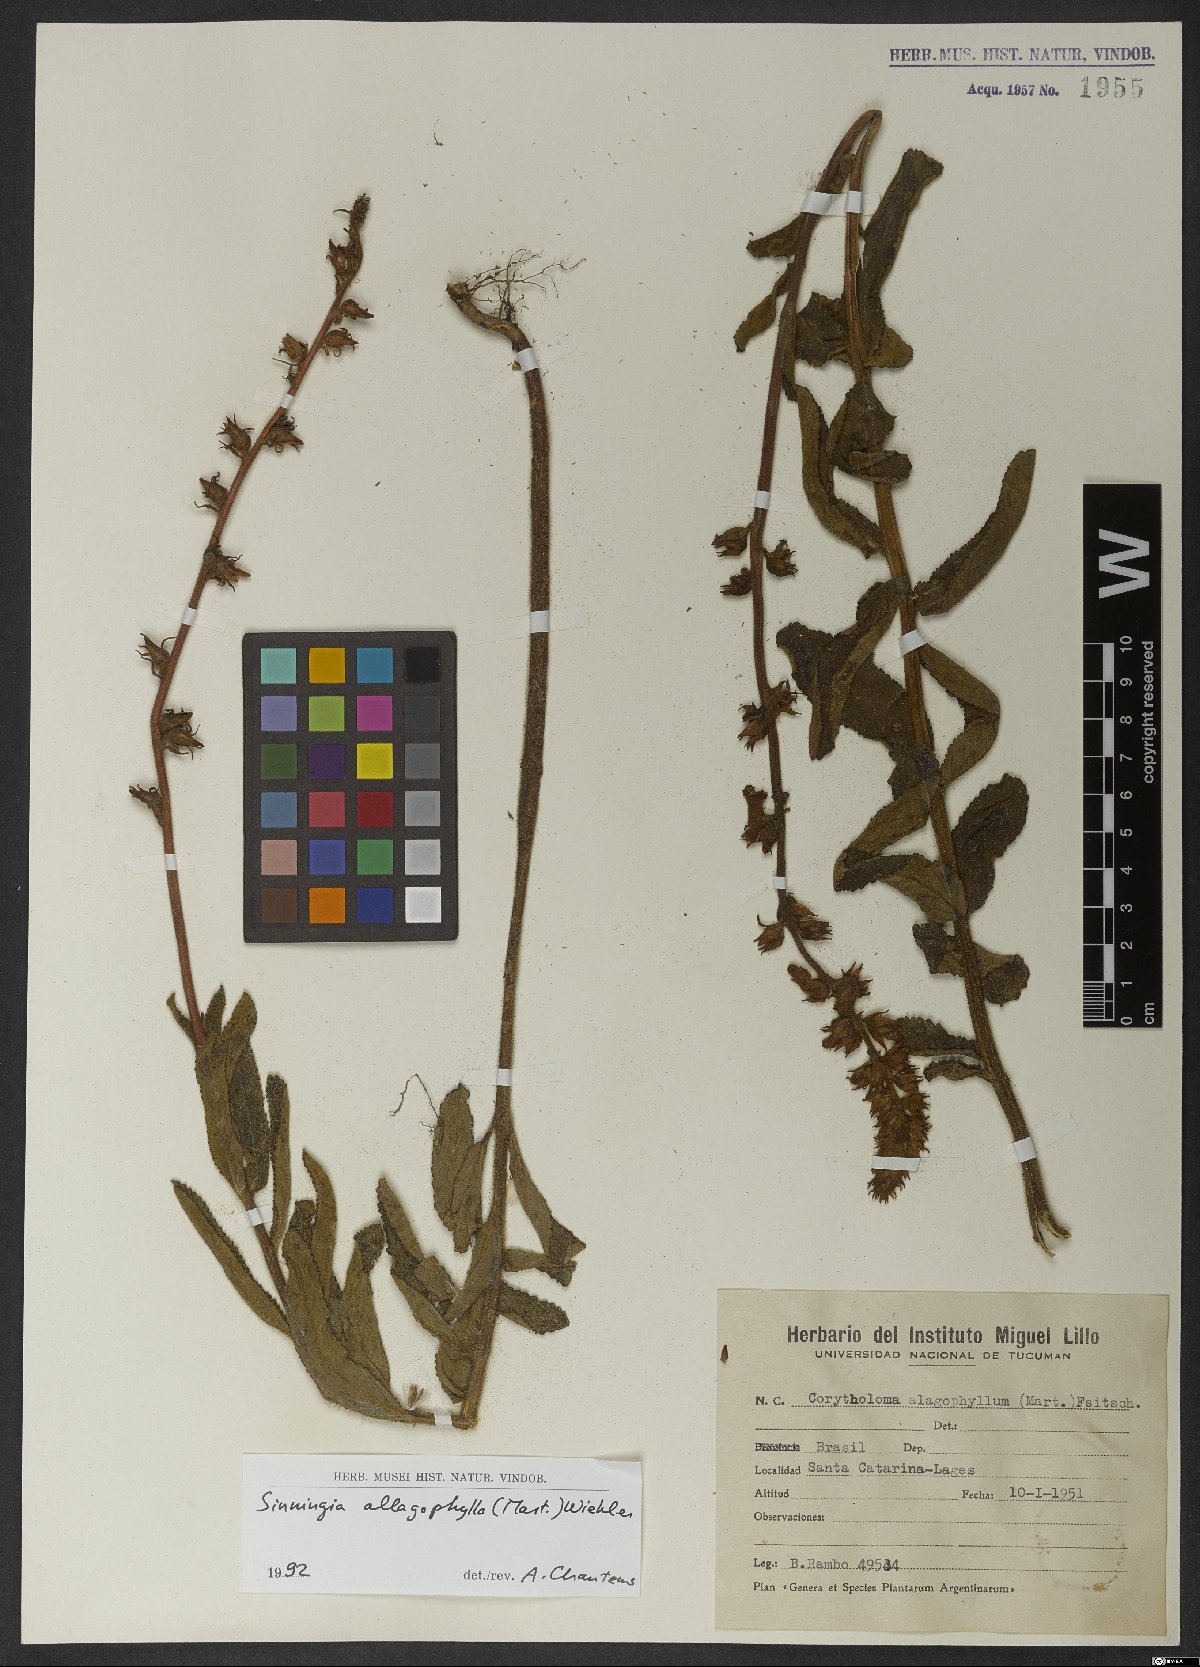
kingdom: Plantae
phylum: Tracheophyta
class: Magnoliopsida
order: Lamiales
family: Gesneriaceae
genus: Sinningia
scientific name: Sinningia allagophylla
